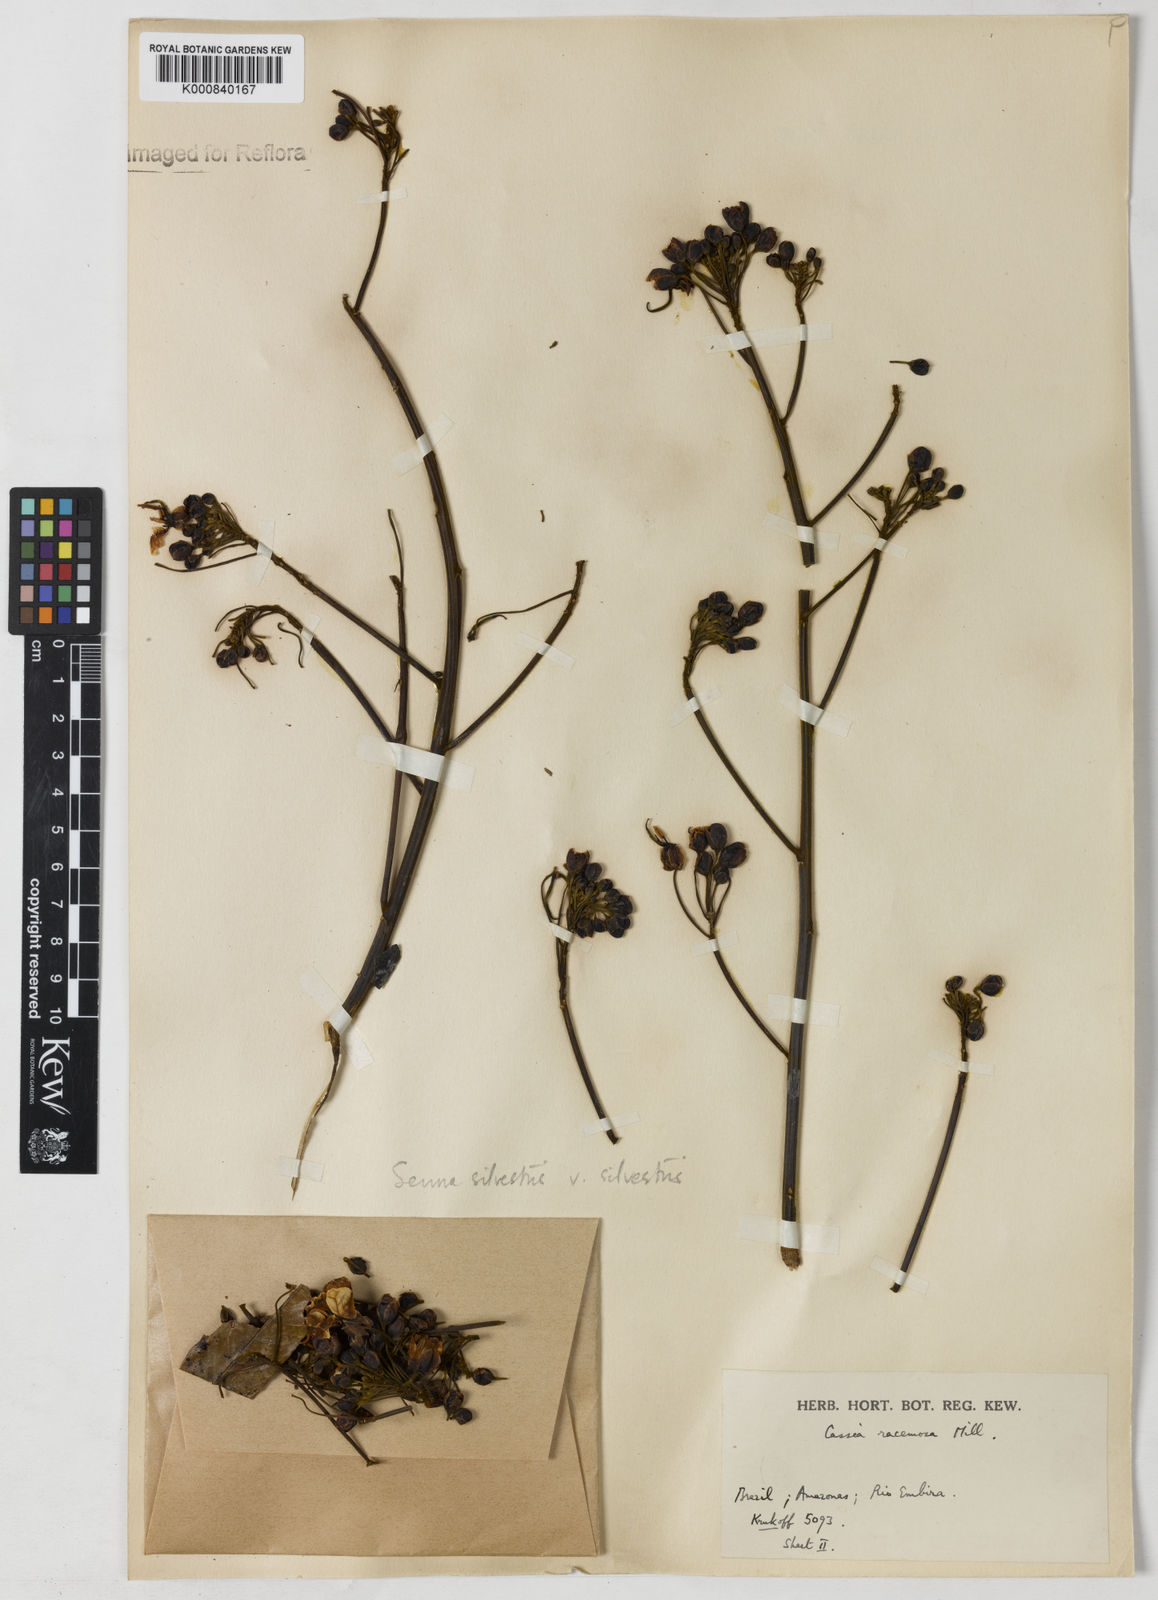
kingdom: Plantae
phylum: Tracheophyta
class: Magnoliopsida
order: Fabales
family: Fabaceae
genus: Senna
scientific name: Senna silvestris
